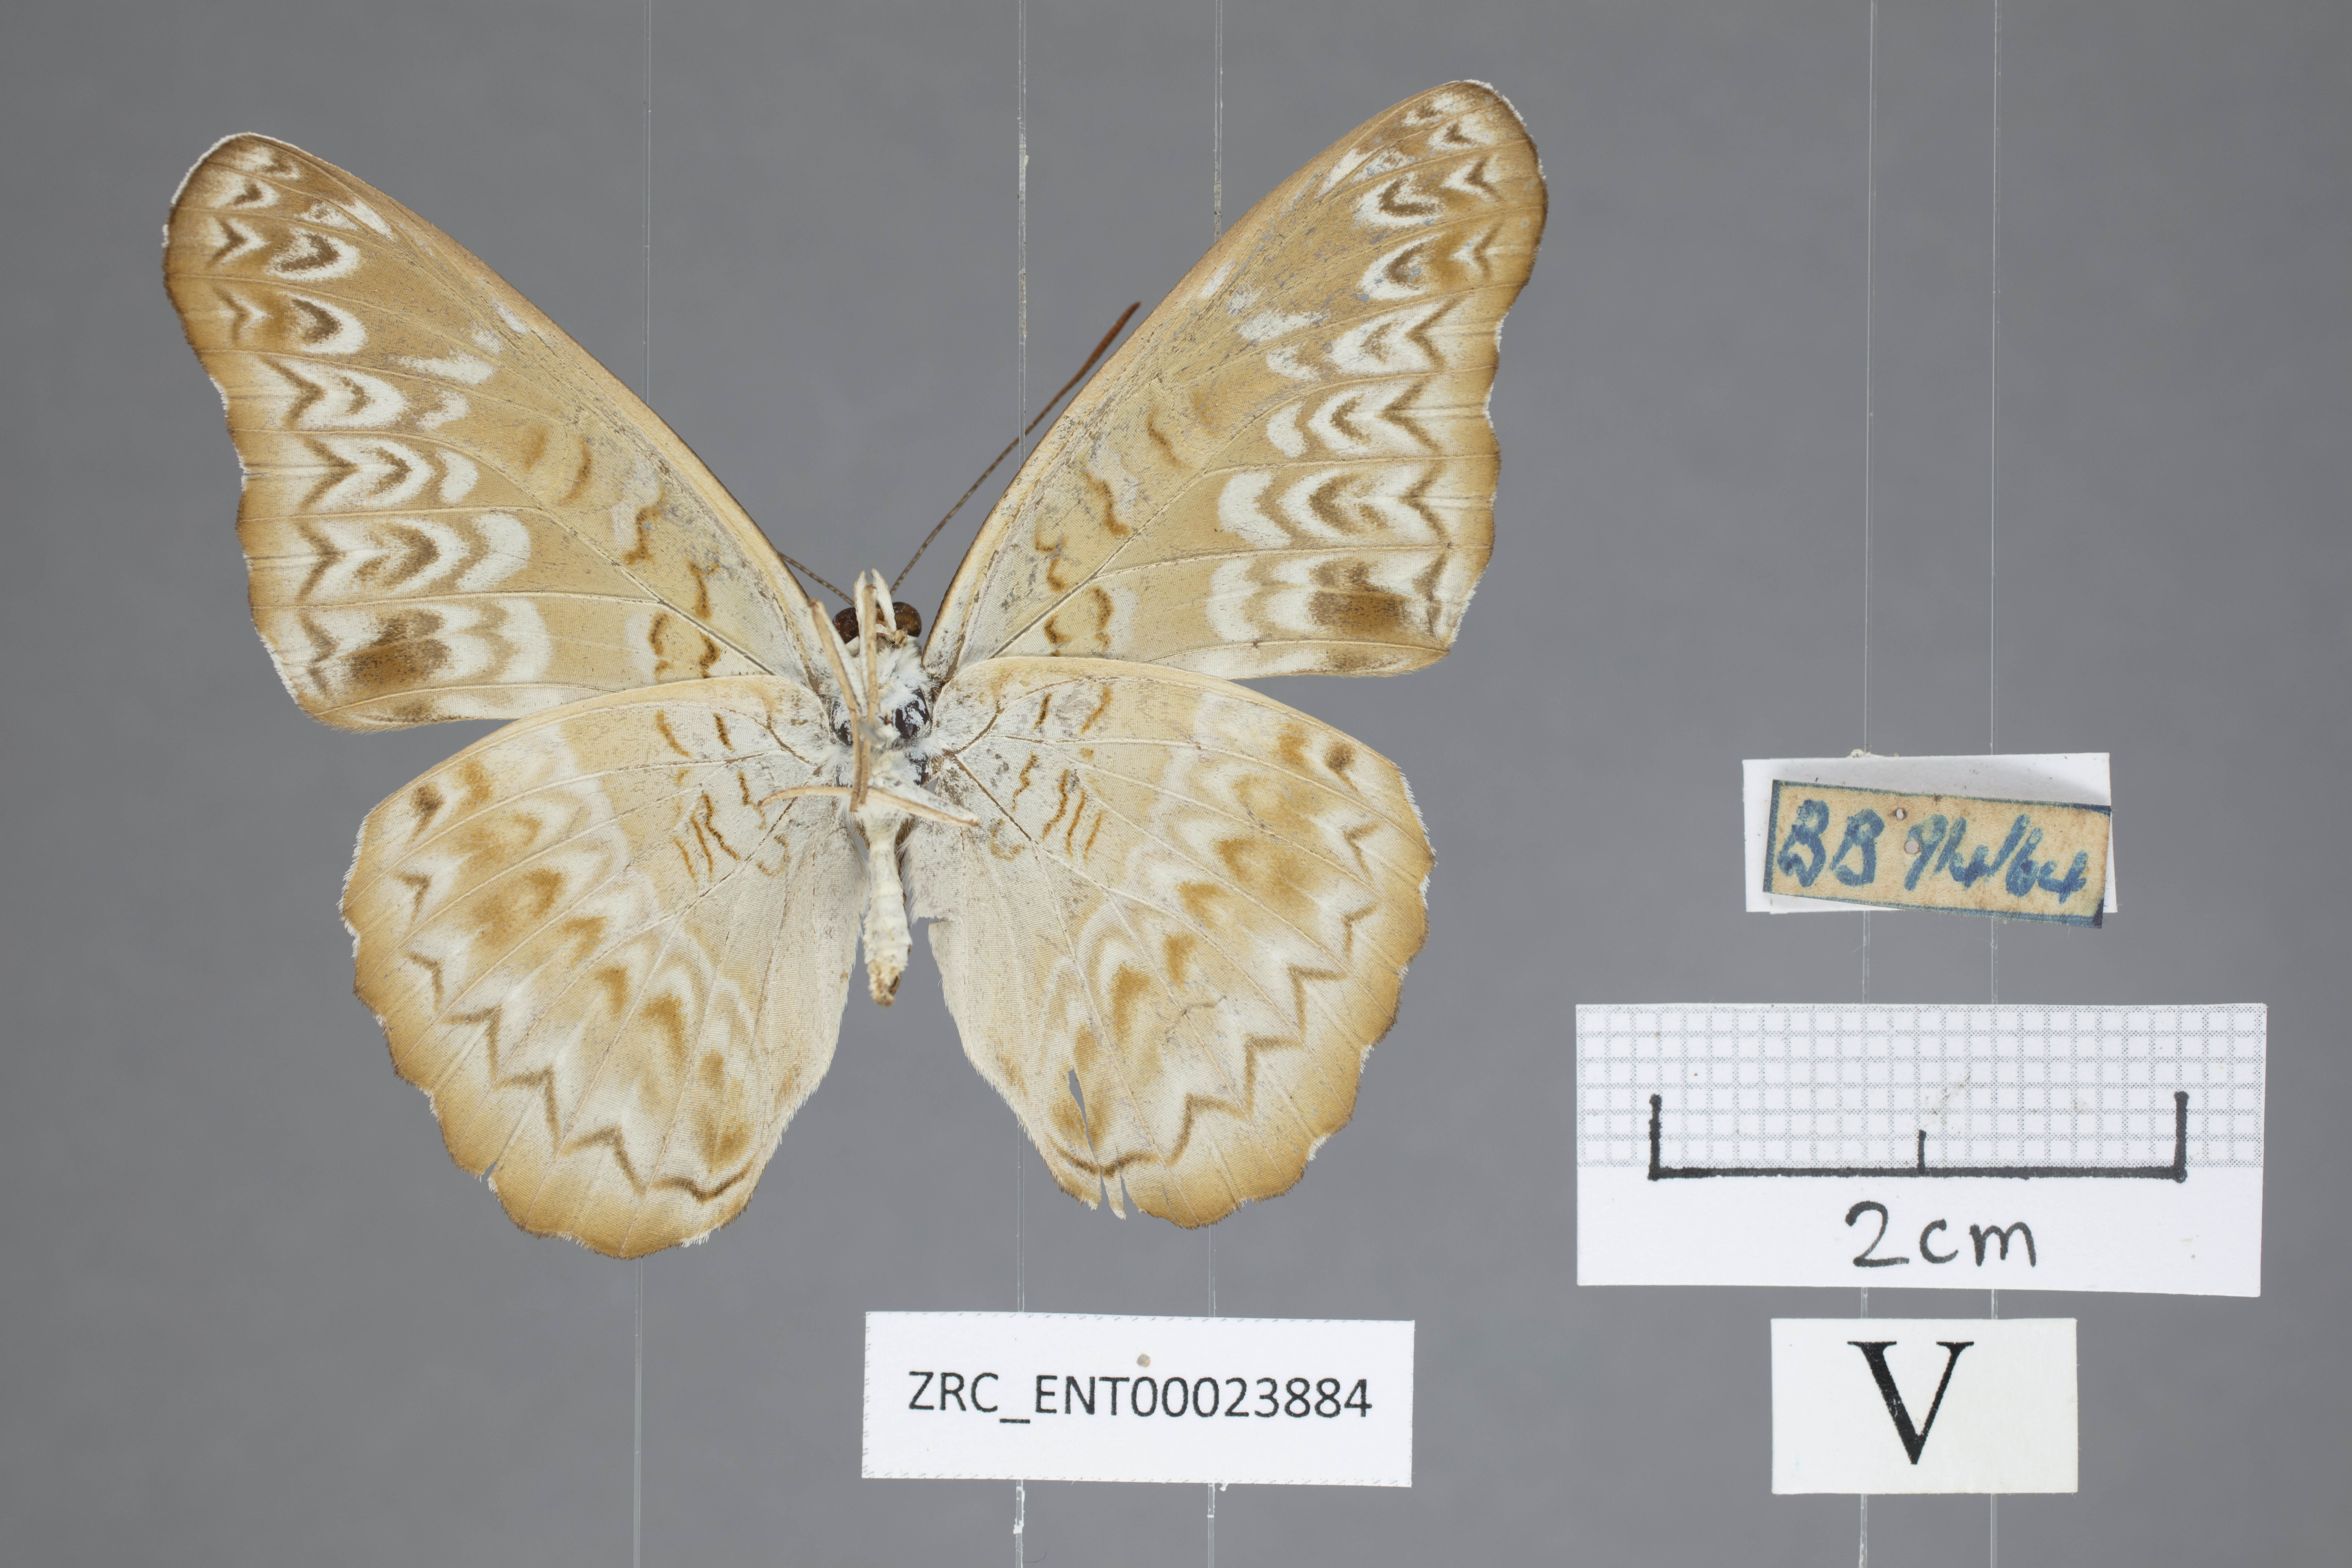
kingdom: Animalia
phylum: Arthropoda
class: Insecta
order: Lepidoptera
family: Nymphalidae
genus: Lebadea
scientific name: Lebadea martha
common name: Knight
